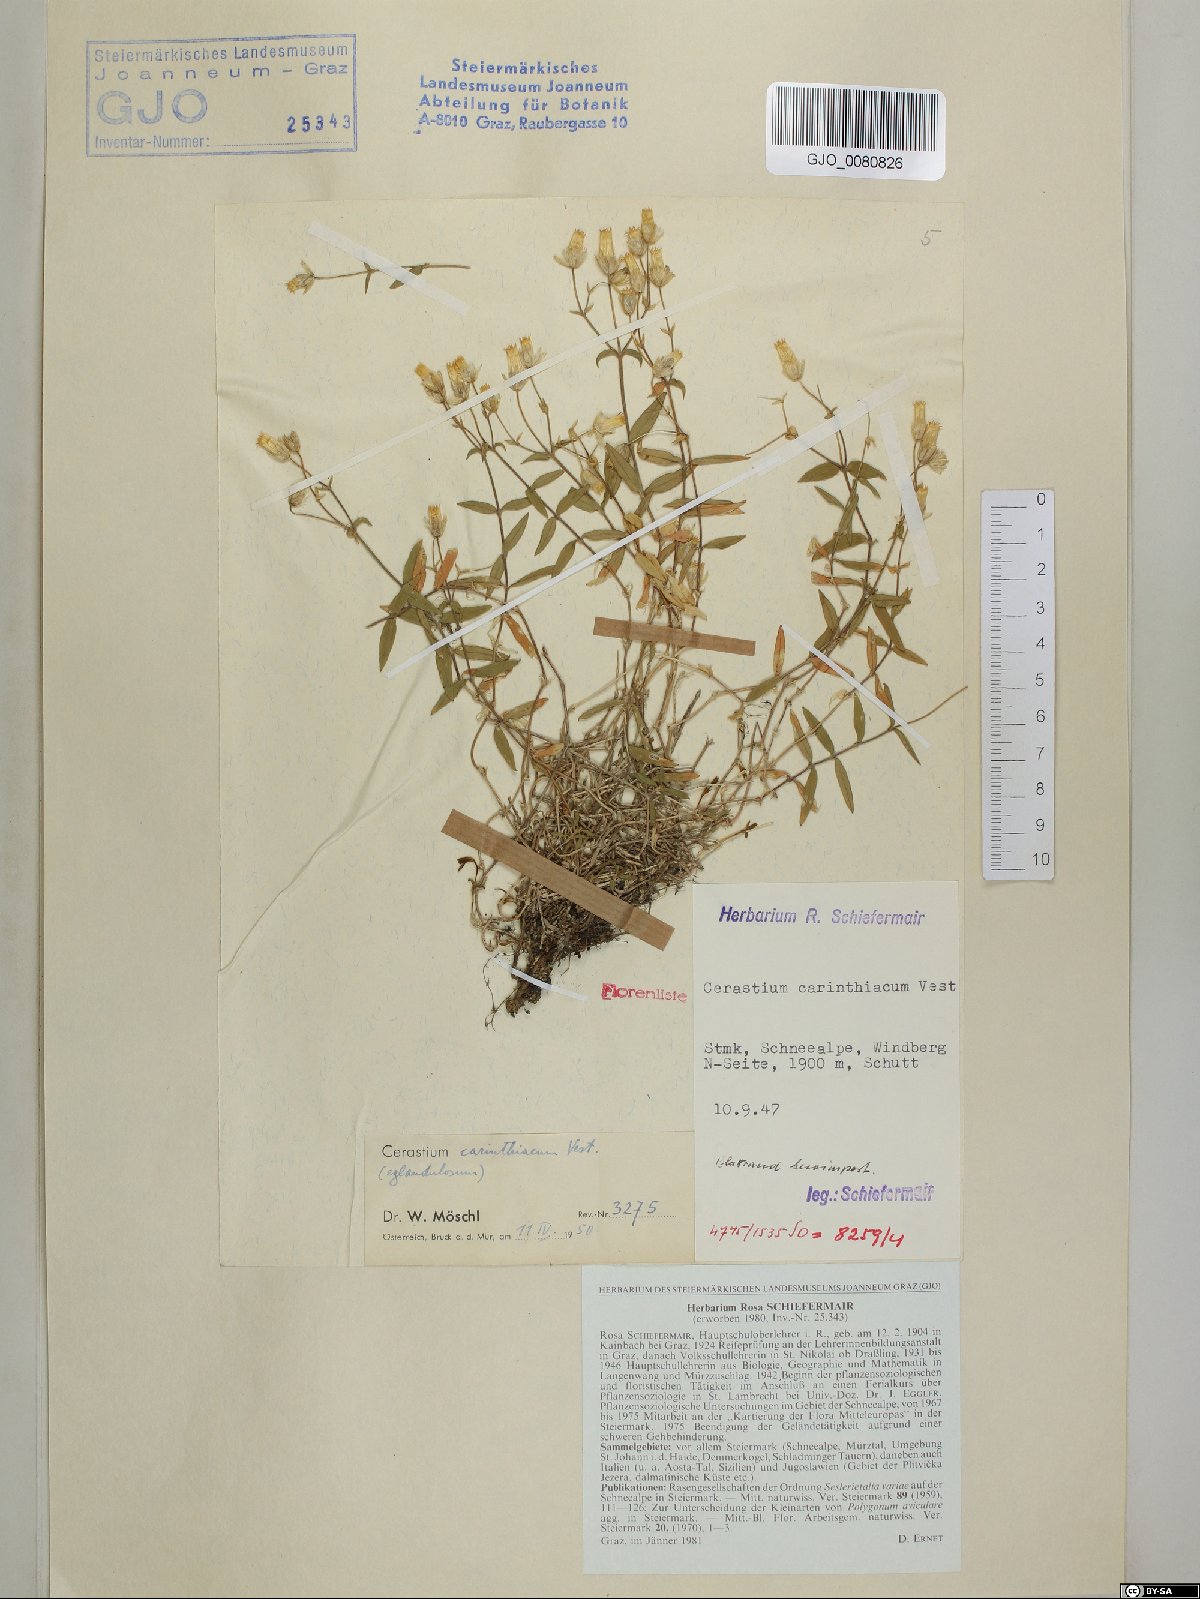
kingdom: Plantae
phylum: Tracheophyta
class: Magnoliopsida
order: Caryophyllales
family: Caryophyllaceae
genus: Cerastium
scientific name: Cerastium carinthiacum
